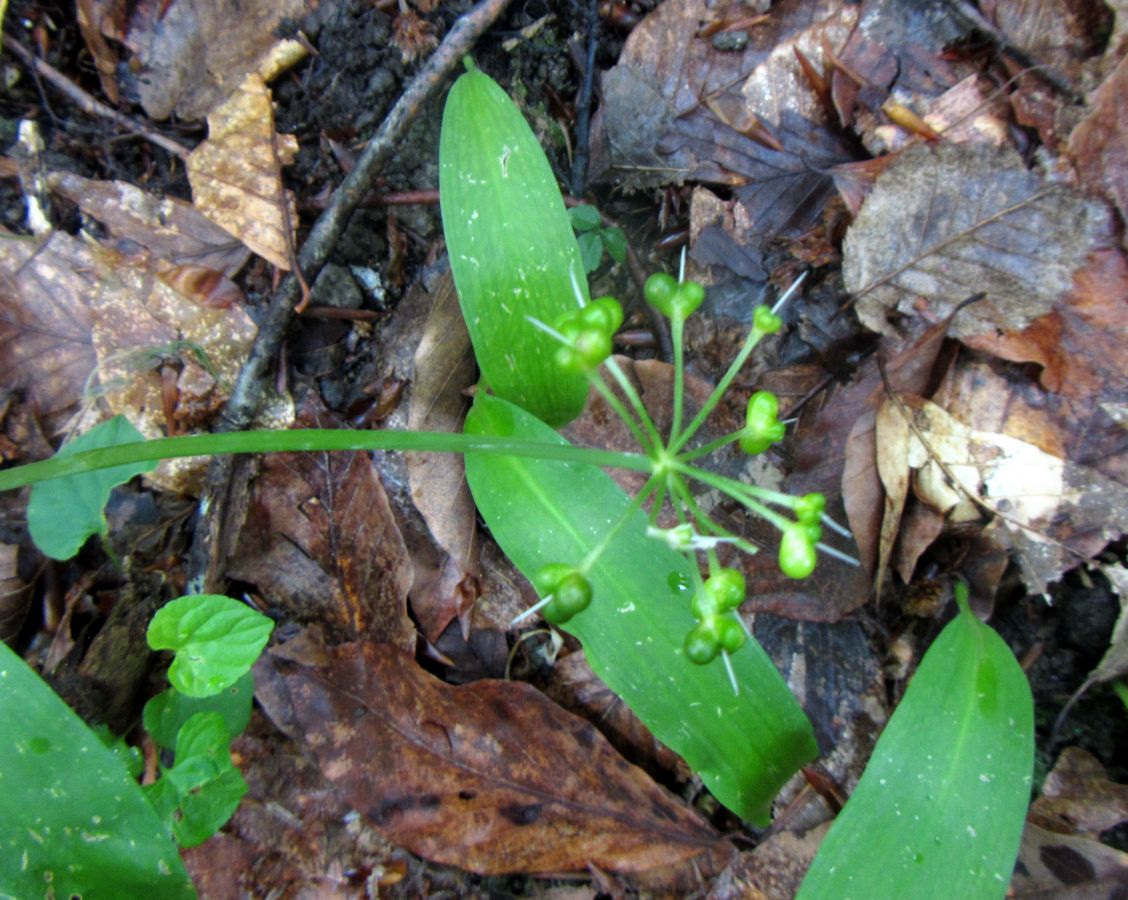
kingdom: Plantae
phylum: Tracheophyta
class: Liliopsida
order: Asparagales
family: Amaryllidaceae
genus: Allium
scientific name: Allium ursinum
